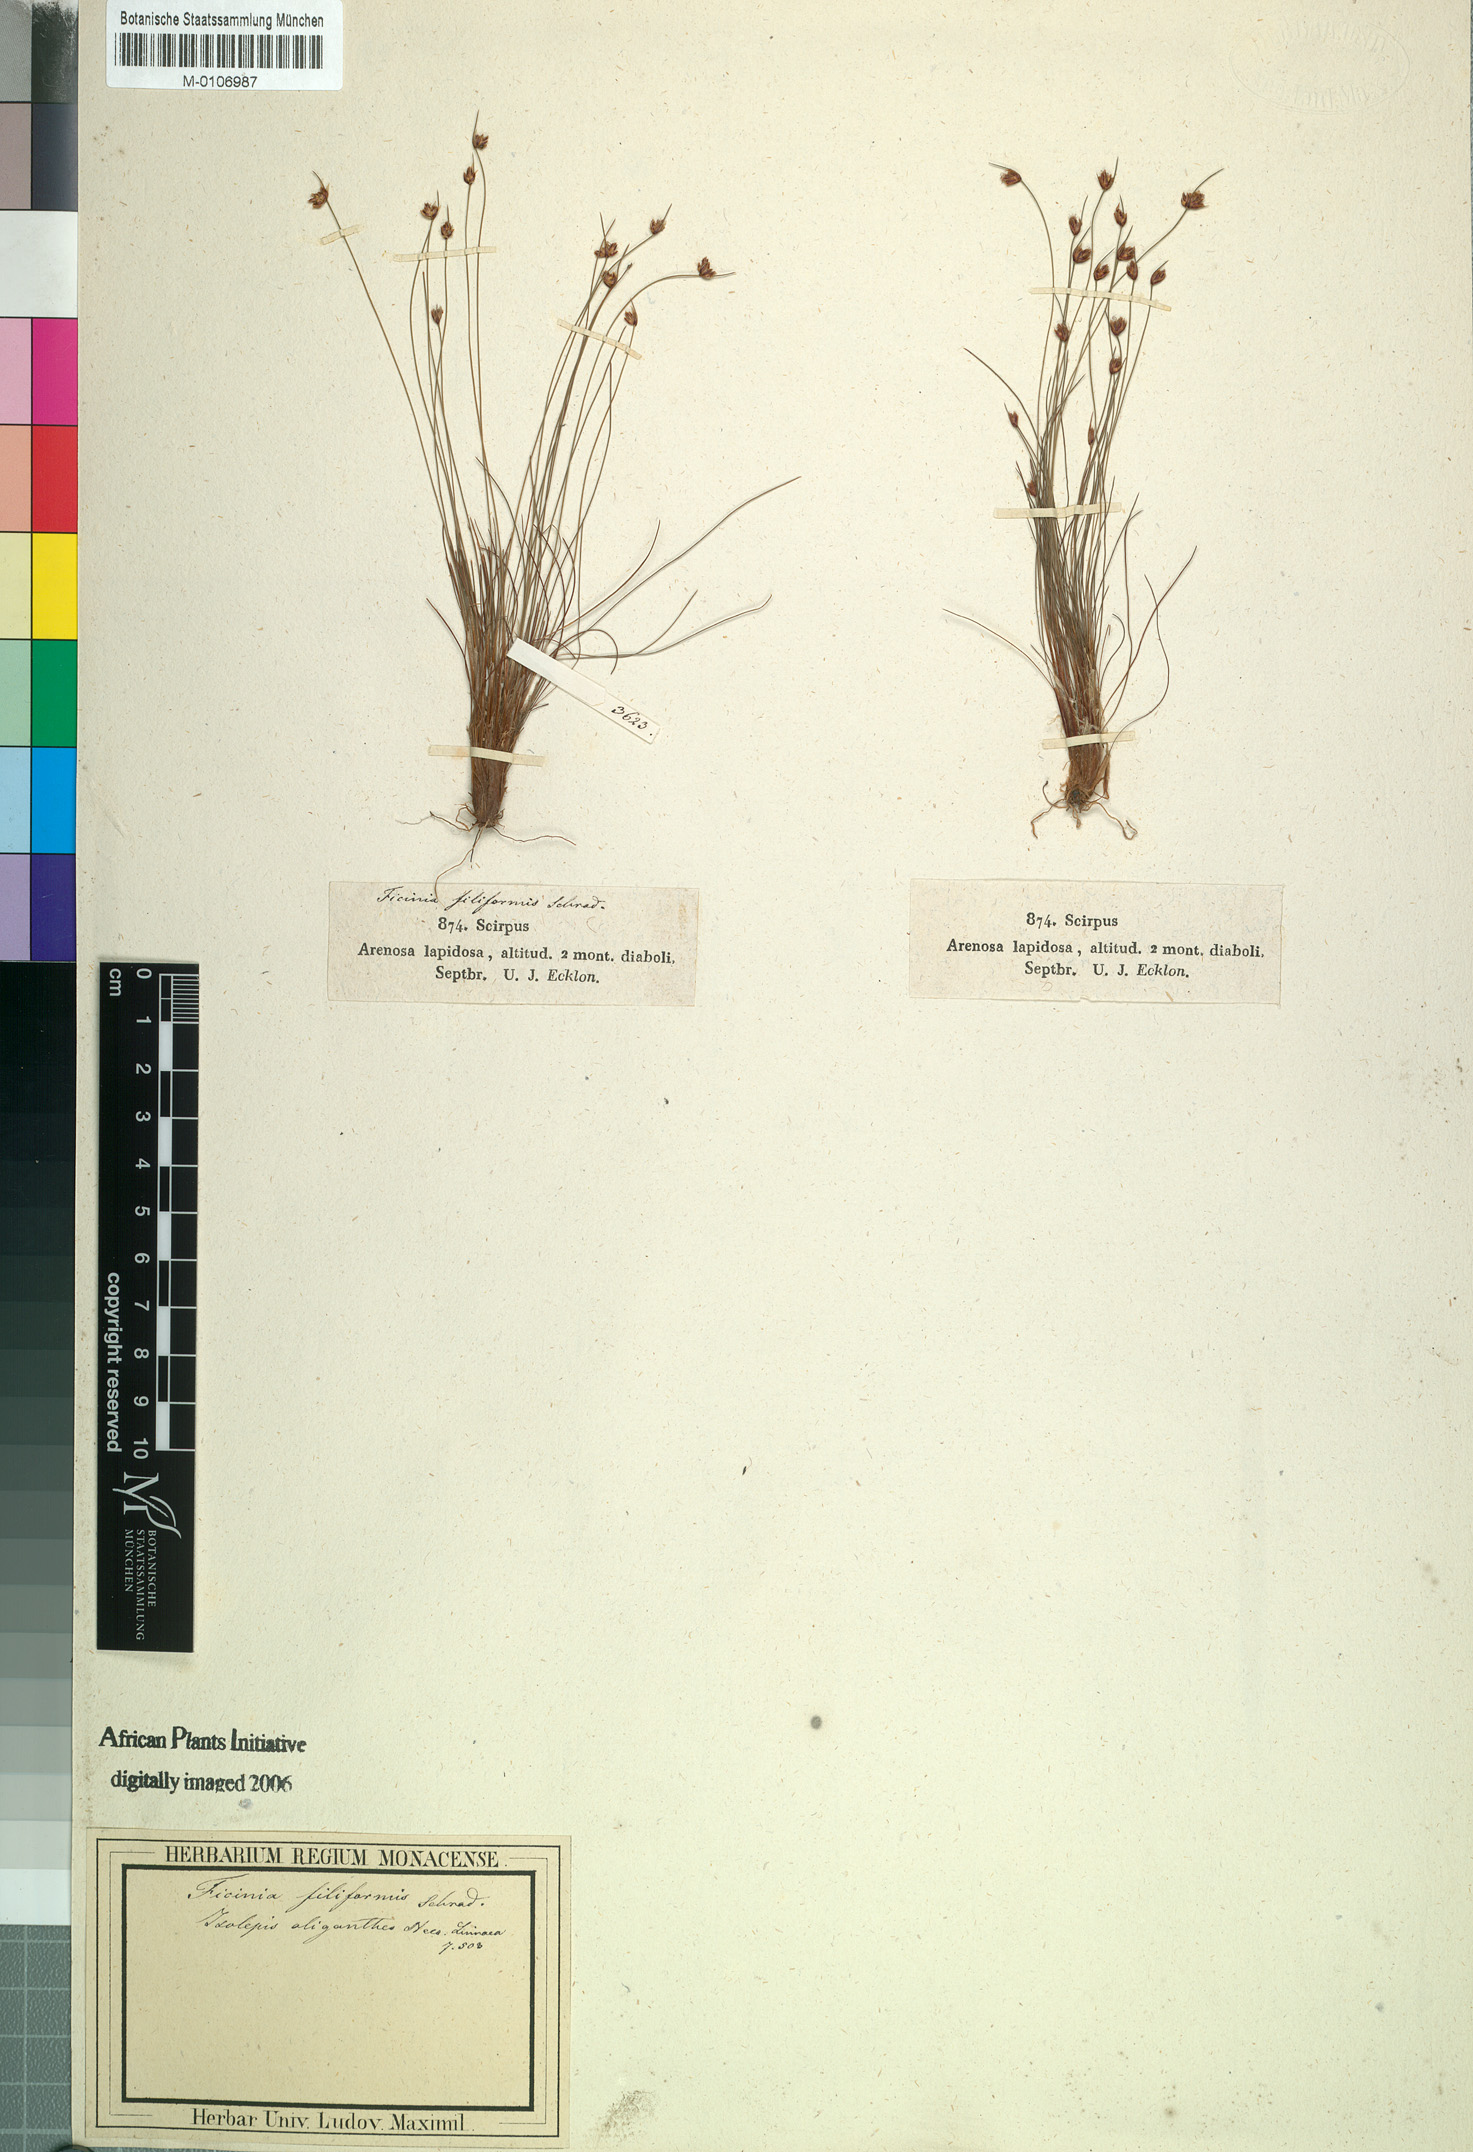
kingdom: Plantae
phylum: Tracheophyta
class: Liliopsida
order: Poales
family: Cyperaceae
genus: Ficinia
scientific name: Ficinia filiformis
